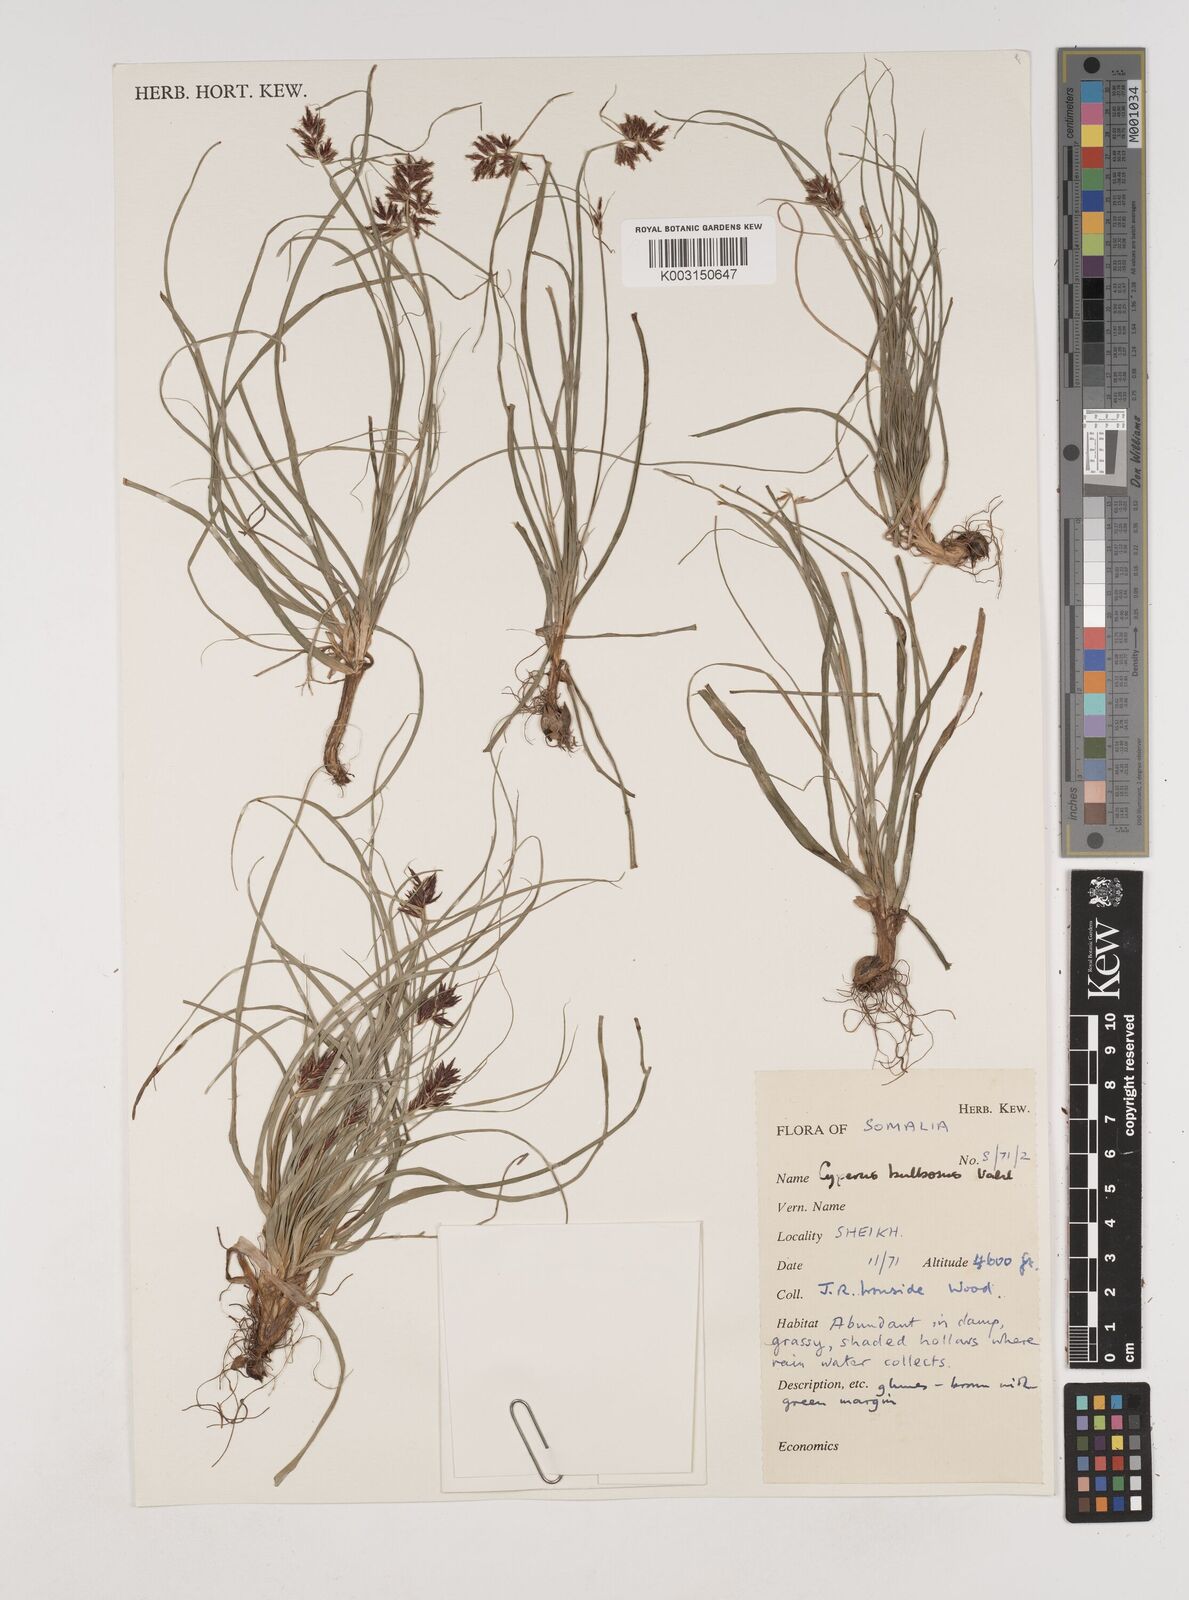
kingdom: Plantae
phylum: Tracheophyta
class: Liliopsida
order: Poales
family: Cyperaceae
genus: Cyperus
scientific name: Cyperus bulbosus
